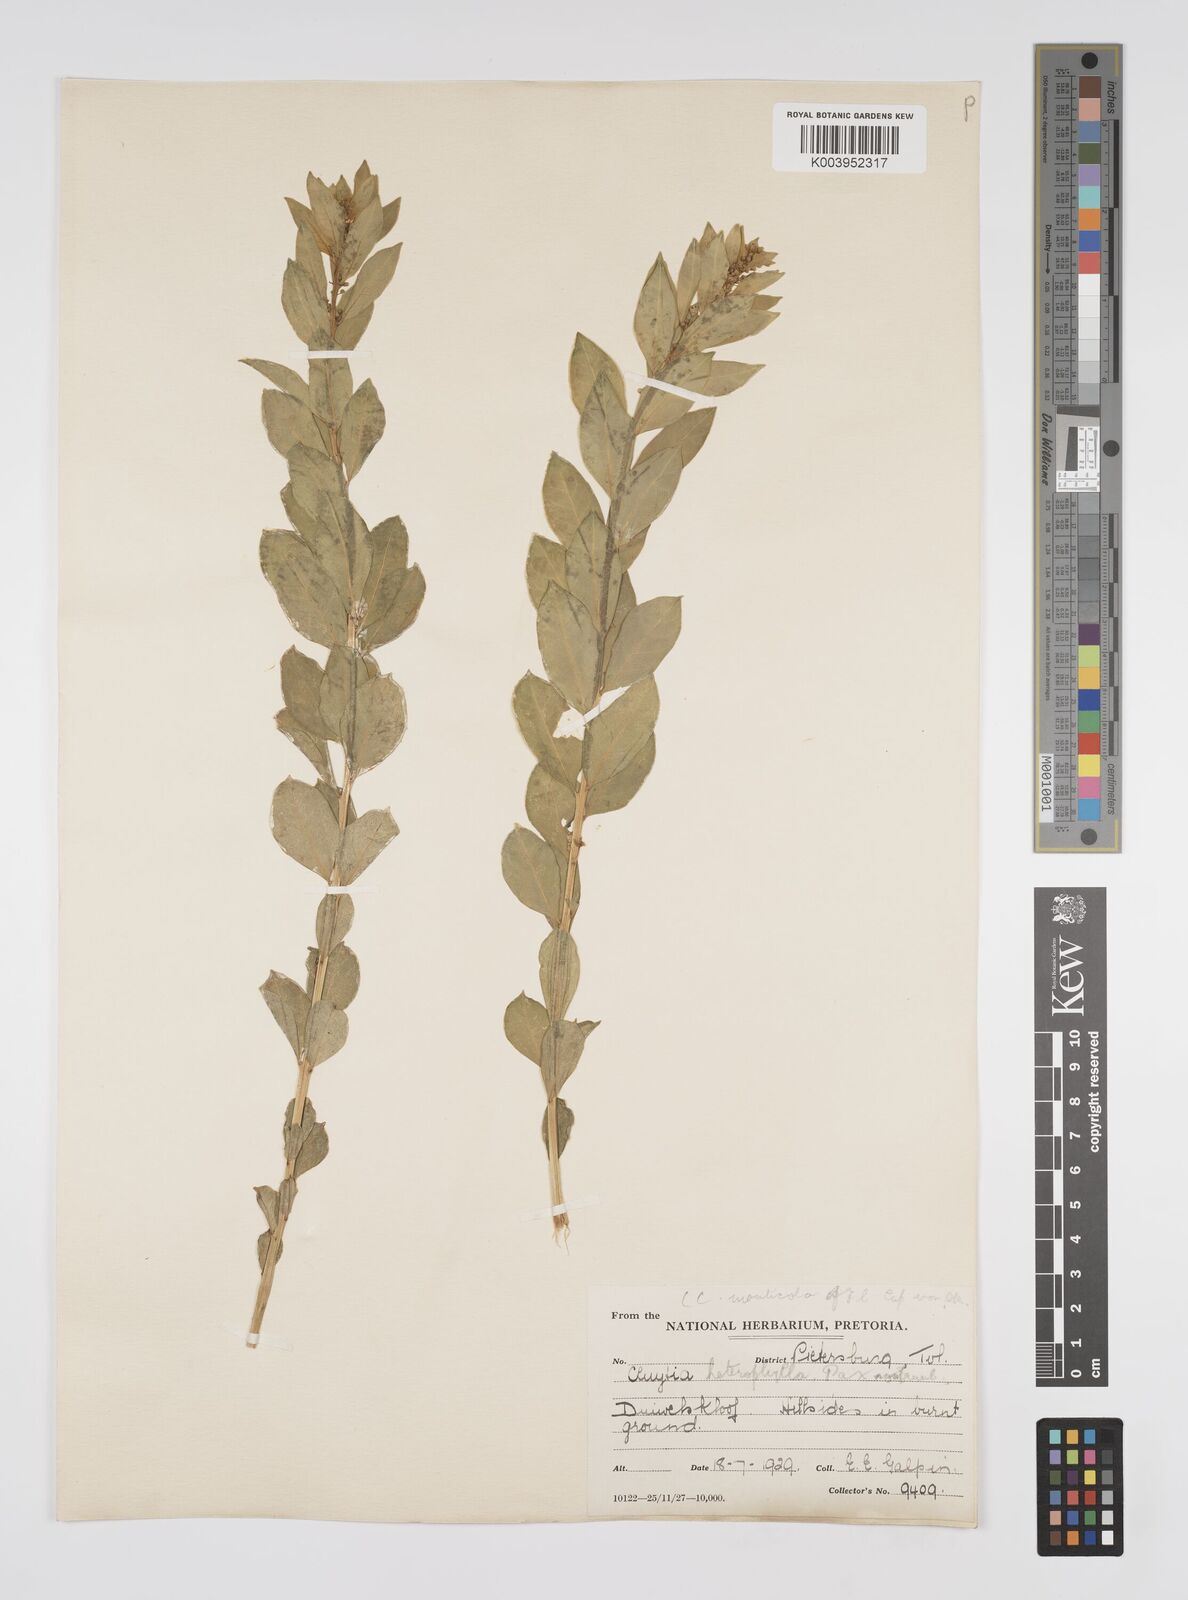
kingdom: Plantae
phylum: Tracheophyta
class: Magnoliopsida
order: Malpighiales
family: Peraceae
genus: Clutia
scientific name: Clutia
